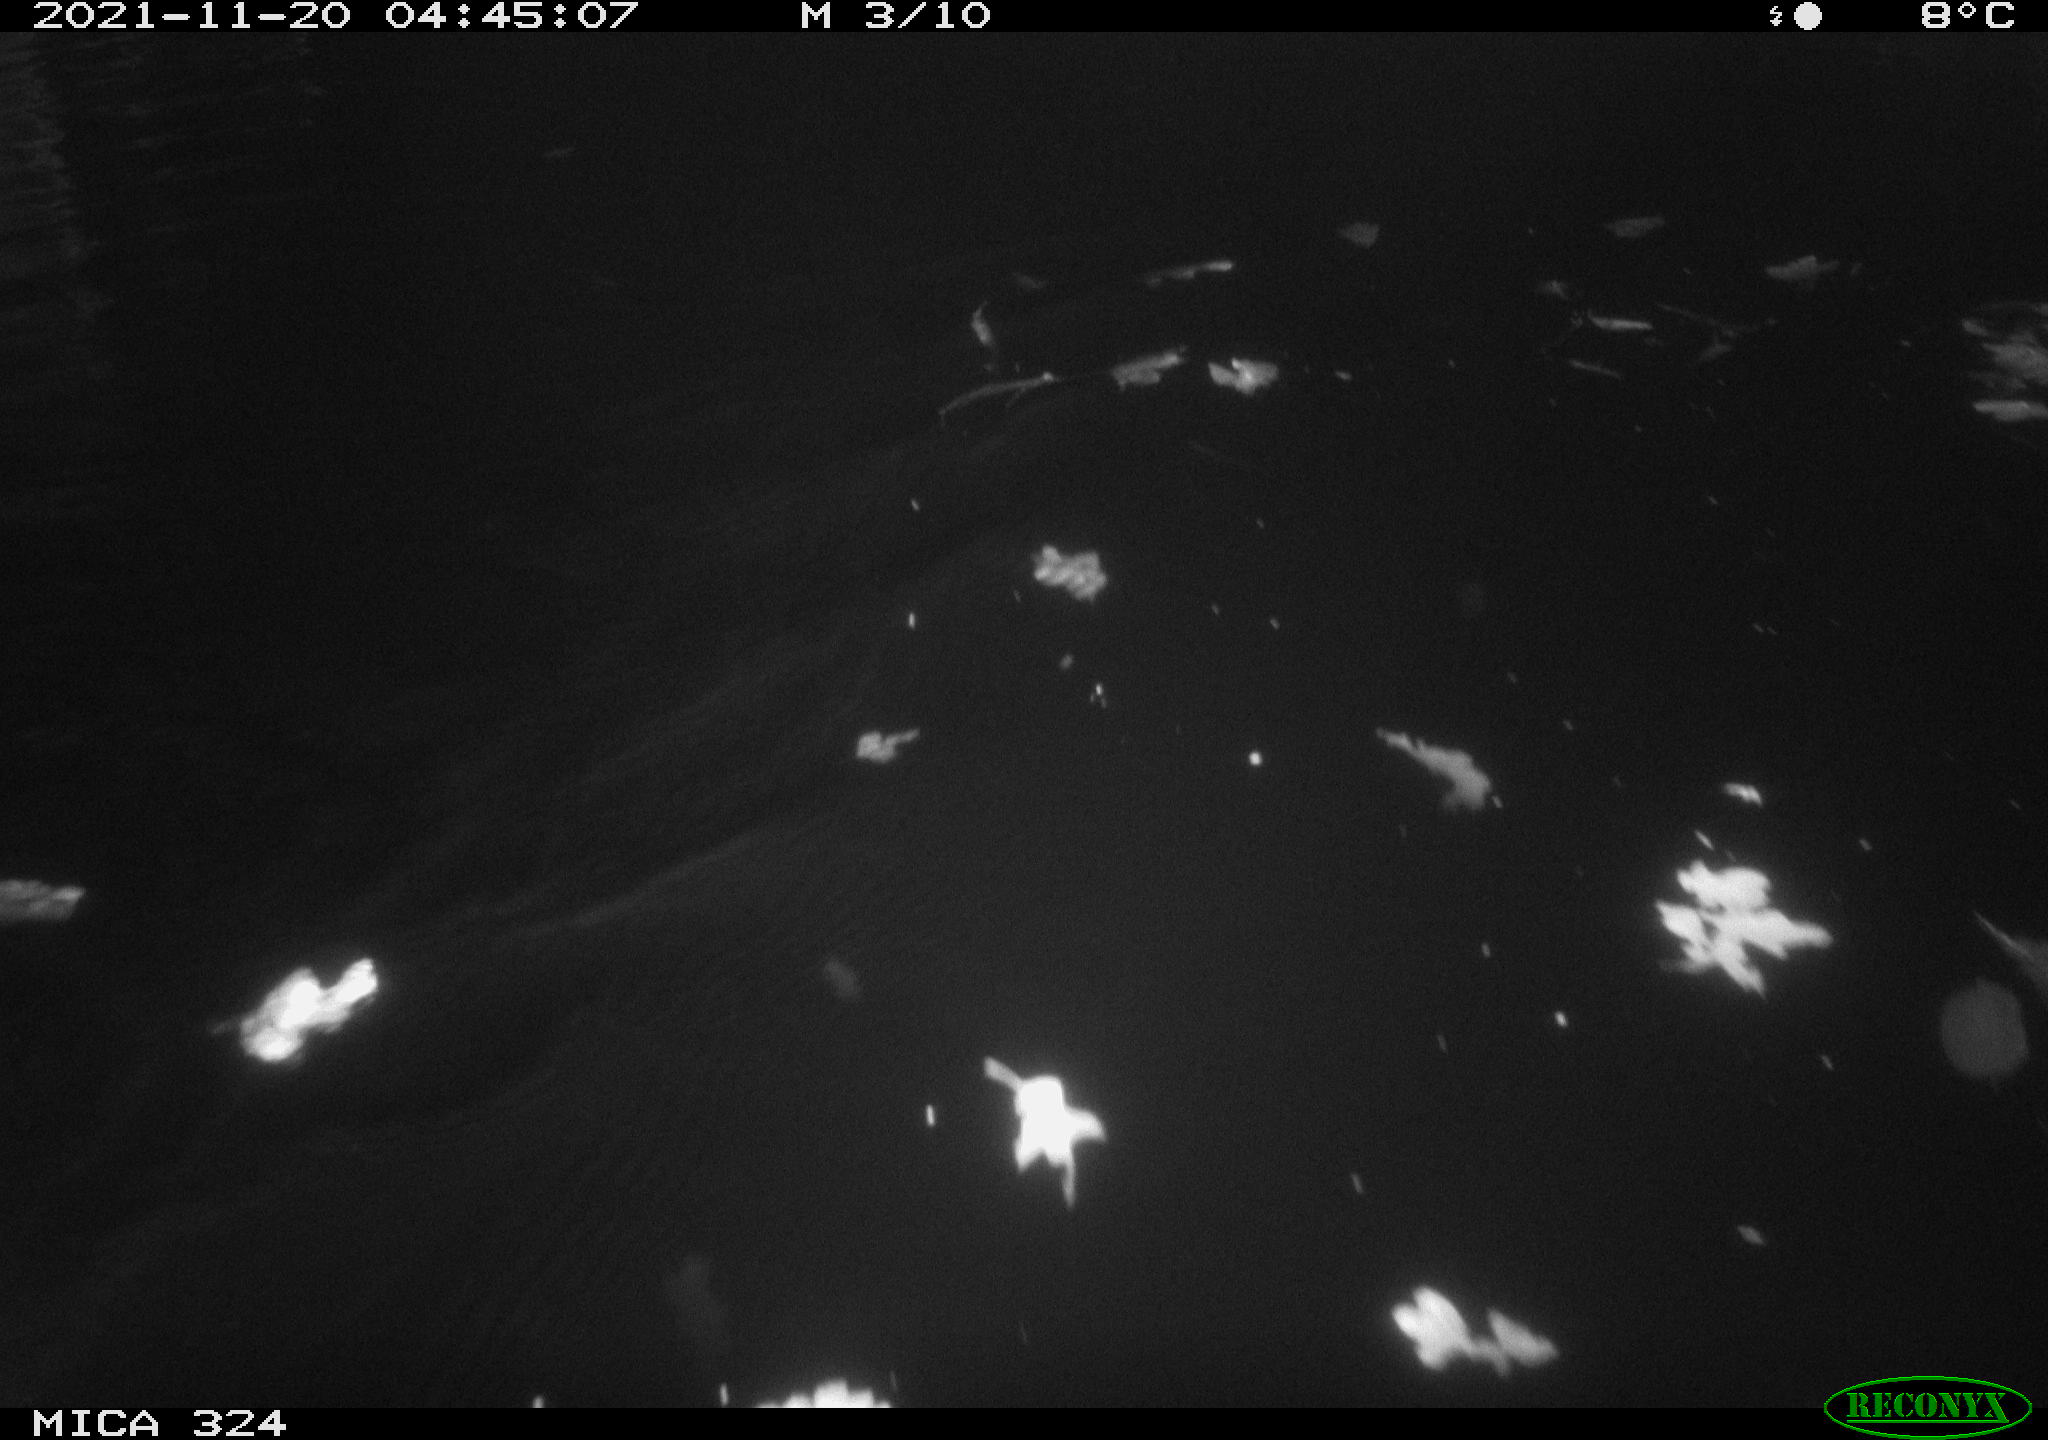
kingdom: Animalia
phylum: Chordata
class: Mammalia
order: Rodentia
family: Cricetidae
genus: Ondatra
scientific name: Ondatra zibethicus
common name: Muskrat
